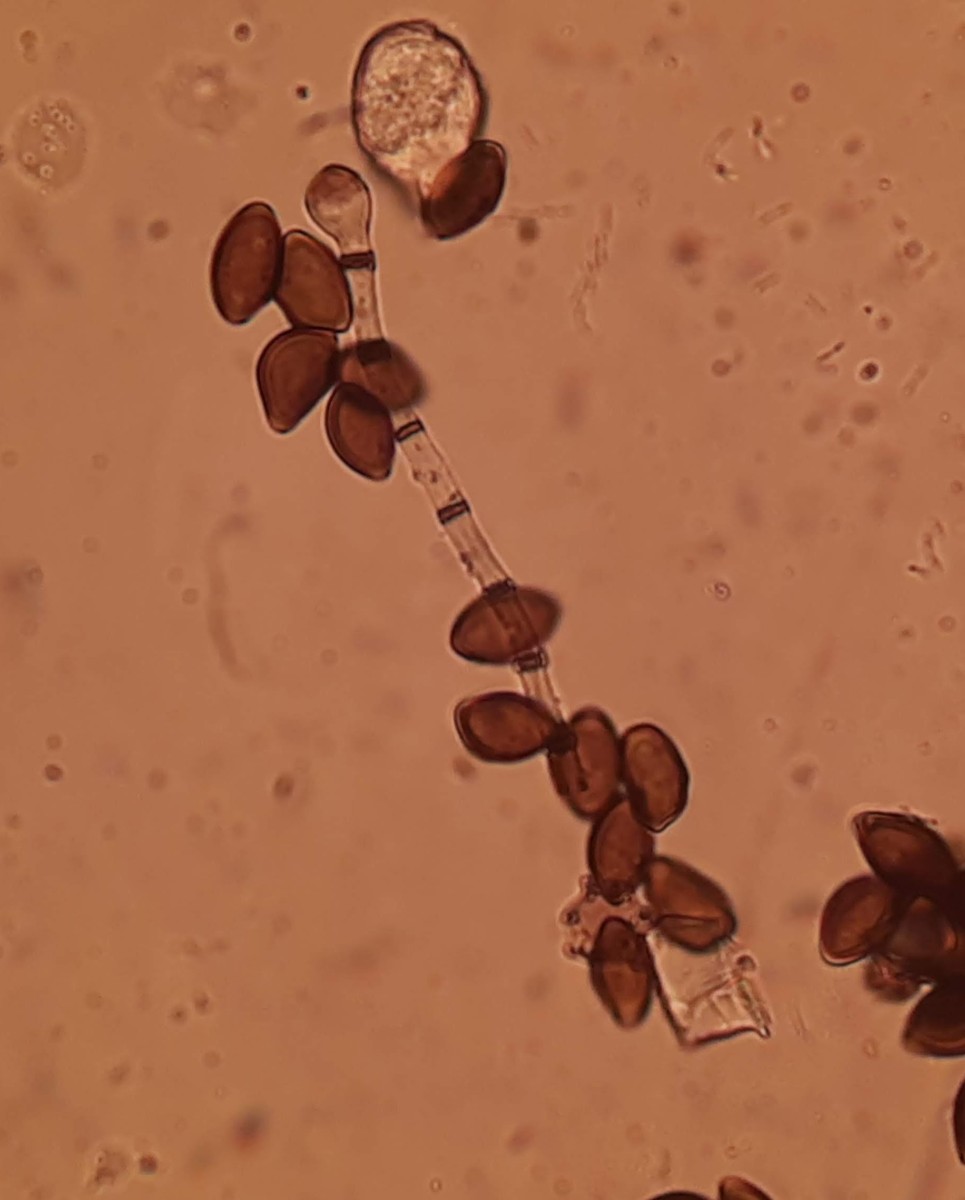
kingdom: Fungi
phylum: Ascomycota
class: Sordariomycetes
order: Xylariales
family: Apiosporaceae
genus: Arthrinium
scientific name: Arthrinium sporophleum
